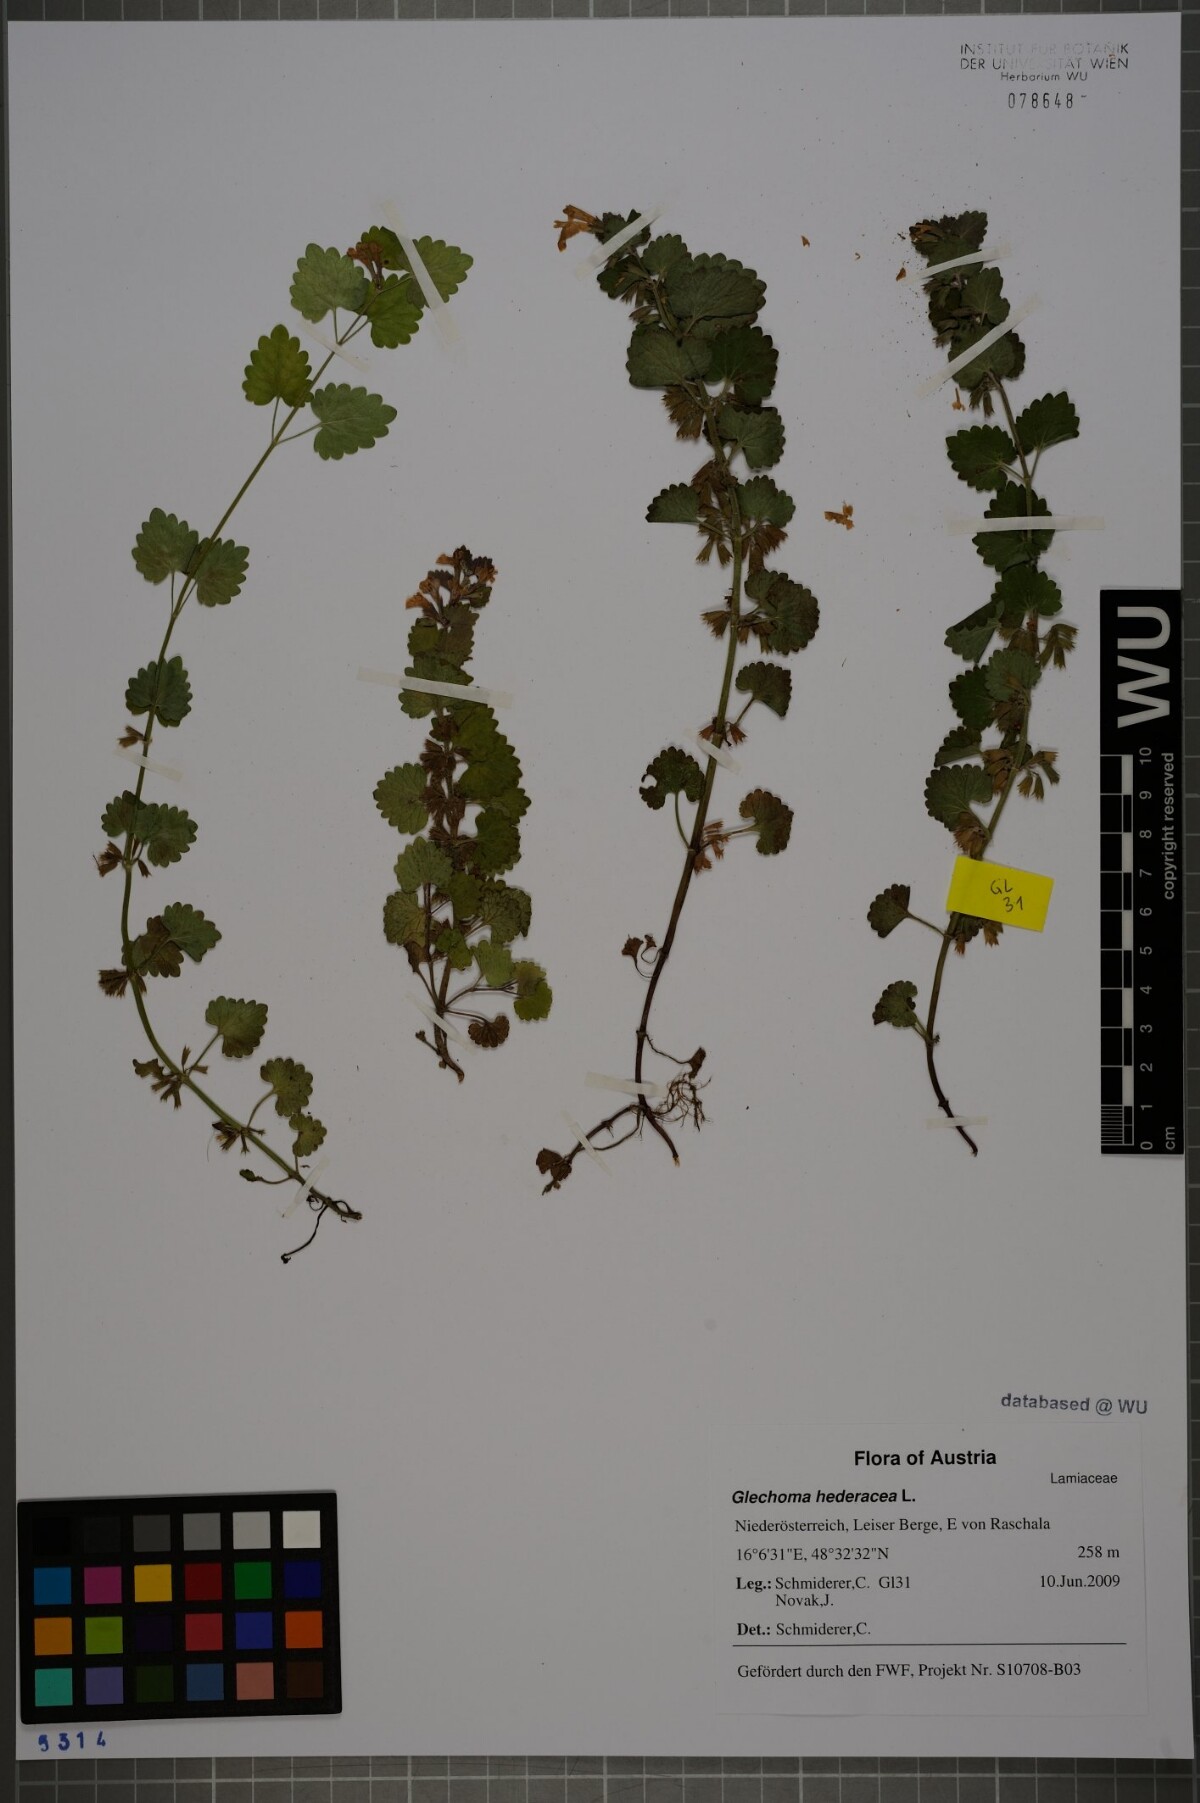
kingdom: Plantae
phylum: Tracheophyta
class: Magnoliopsida
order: Lamiales
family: Lamiaceae
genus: Glechoma
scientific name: Glechoma hederacea
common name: Ground ivy
